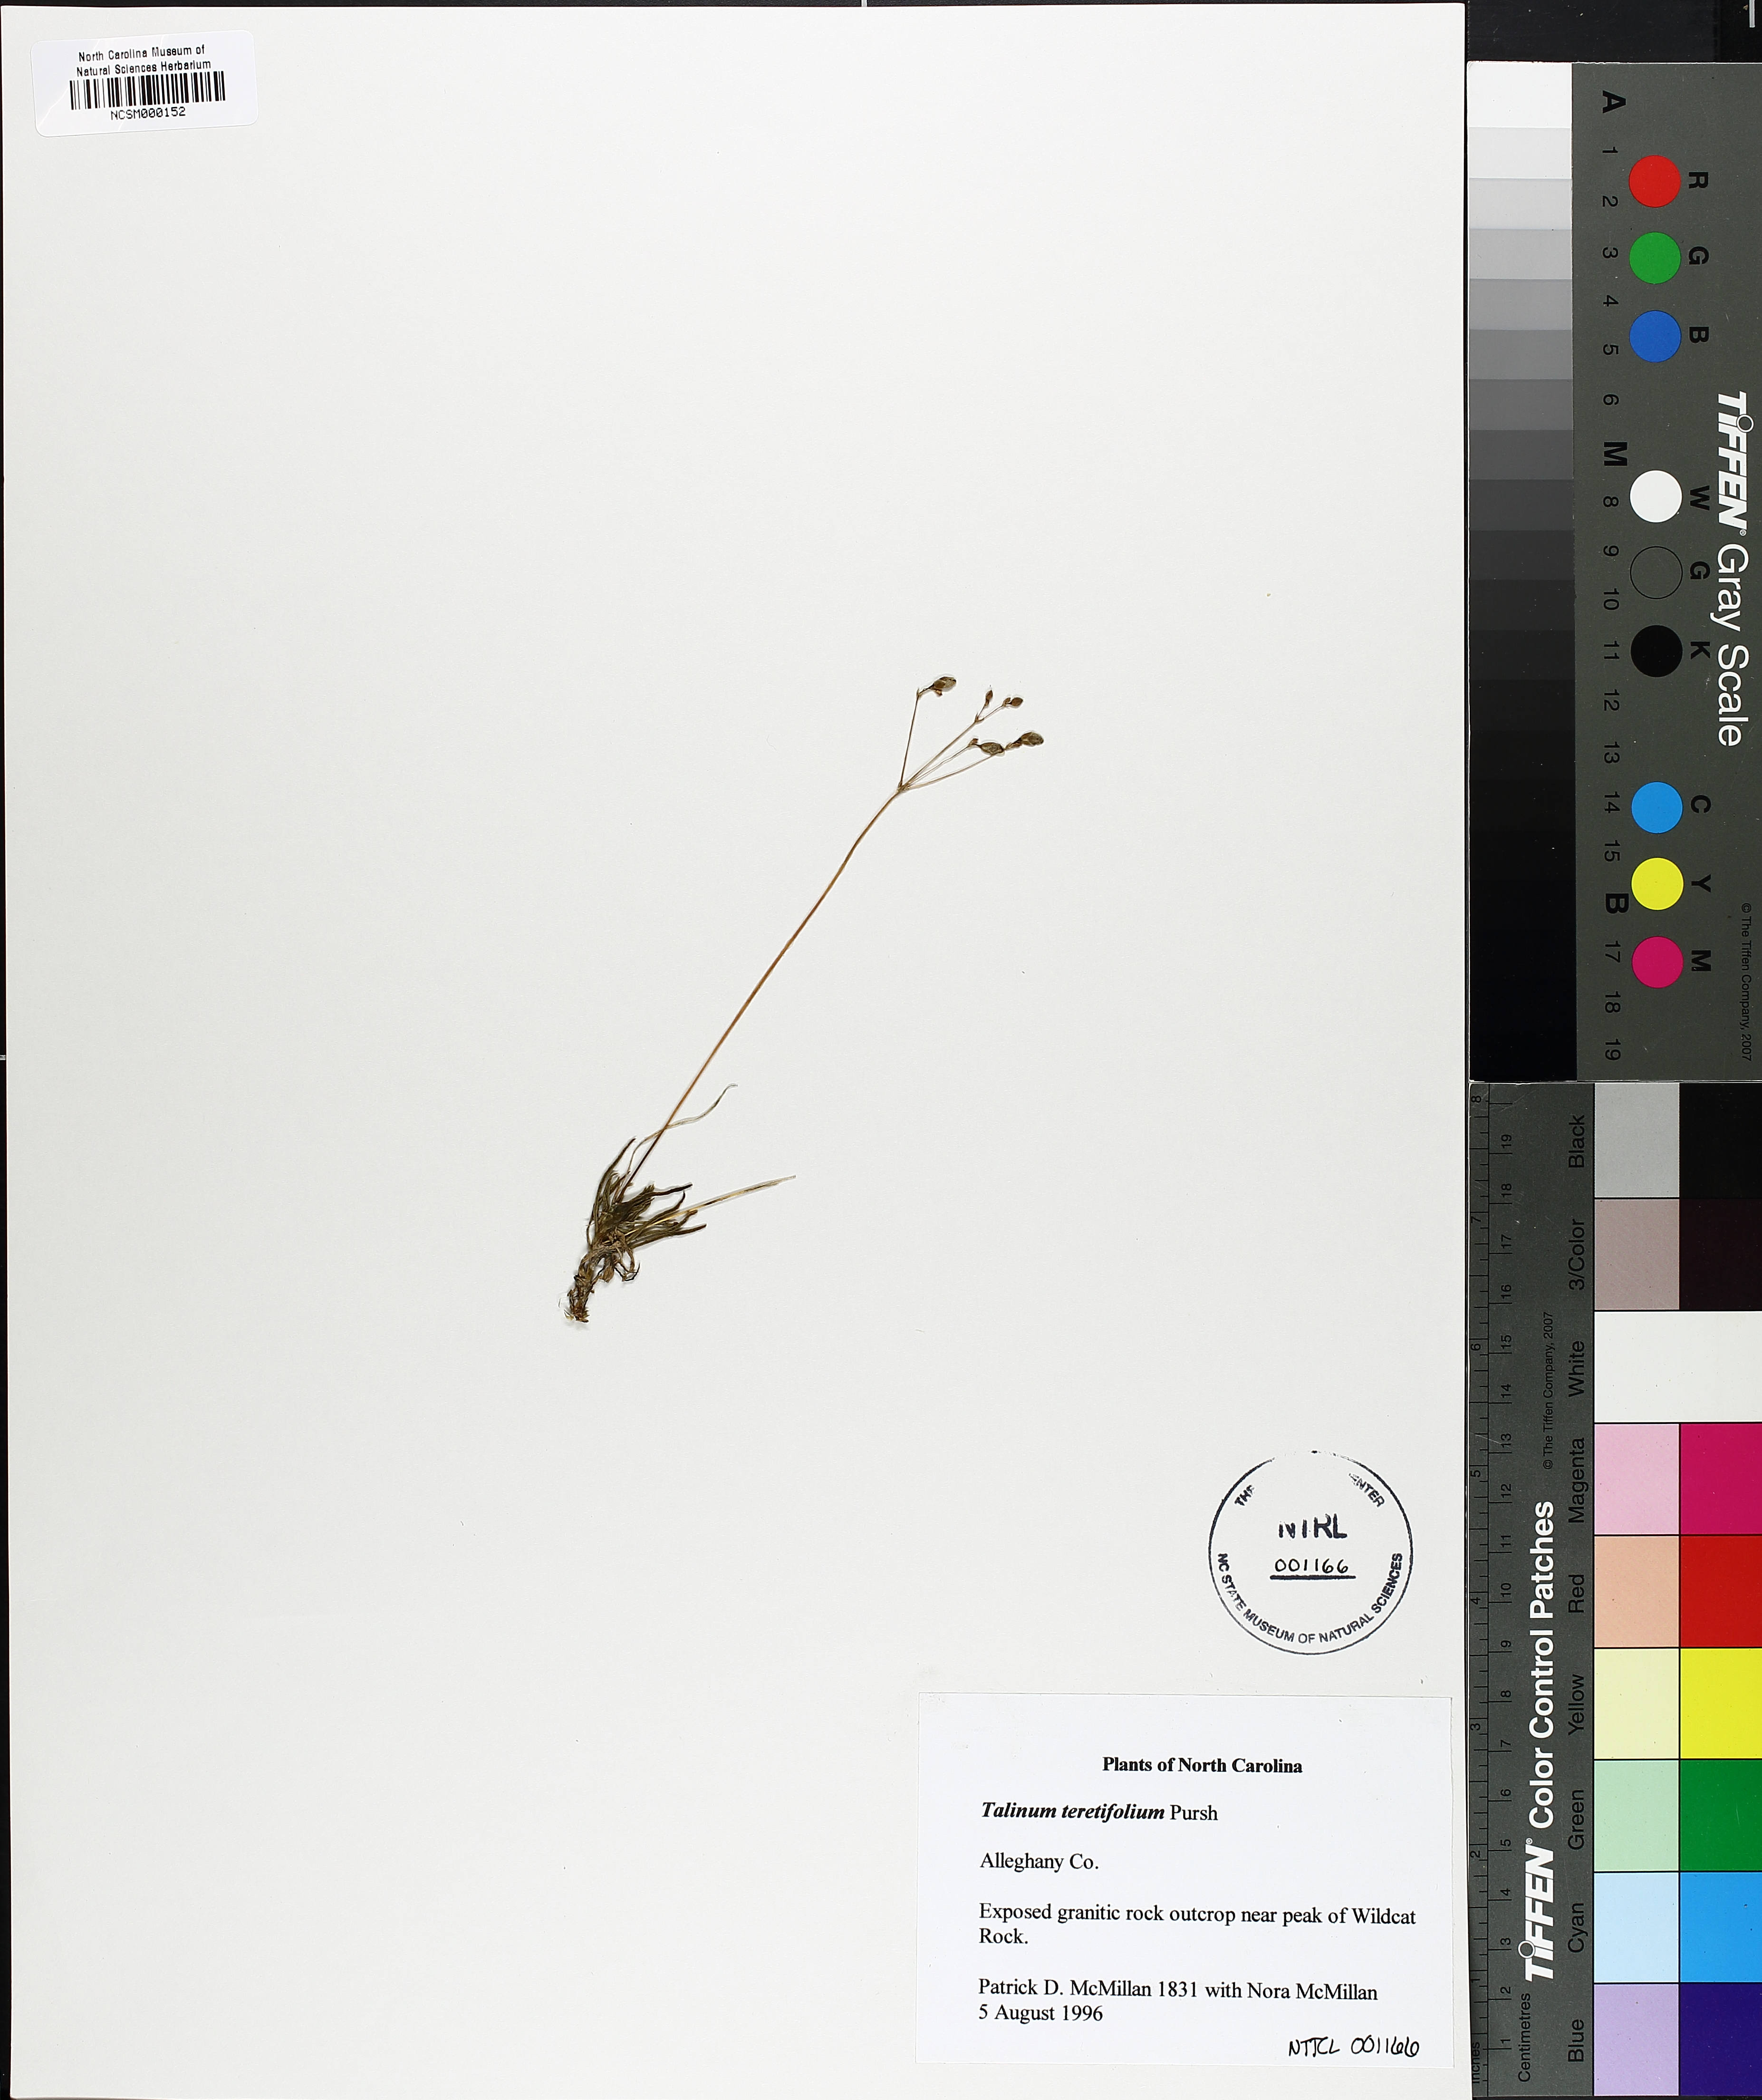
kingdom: Plantae
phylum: Tracheophyta
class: Magnoliopsida
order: Caryophyllales
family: Montiaceae
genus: Phemeranthus
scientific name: Phemeranthus teretifolius
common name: Quill fameflower
